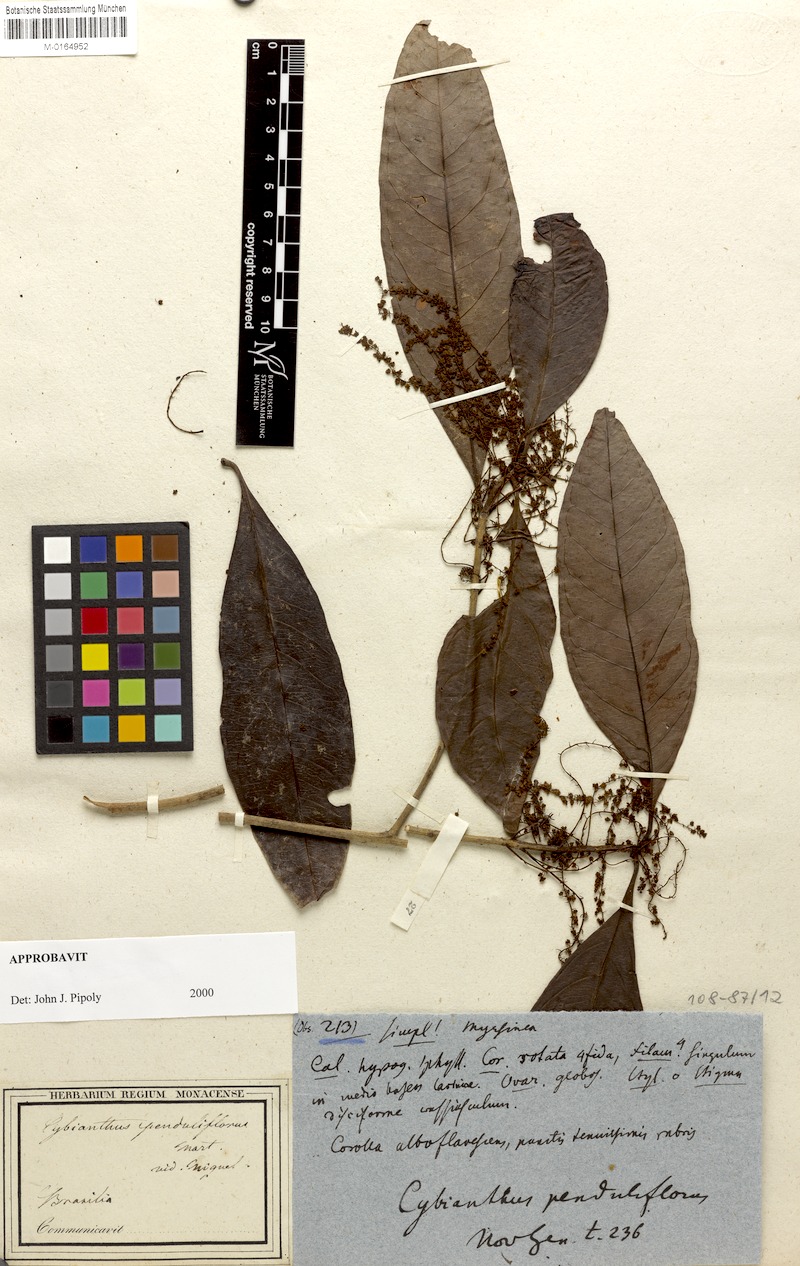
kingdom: Plantae
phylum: Tracheophyta
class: Magnoliopsida
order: Ericales
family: Primulaceae
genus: Cybianthus
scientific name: Cybianthus penduliflorus
